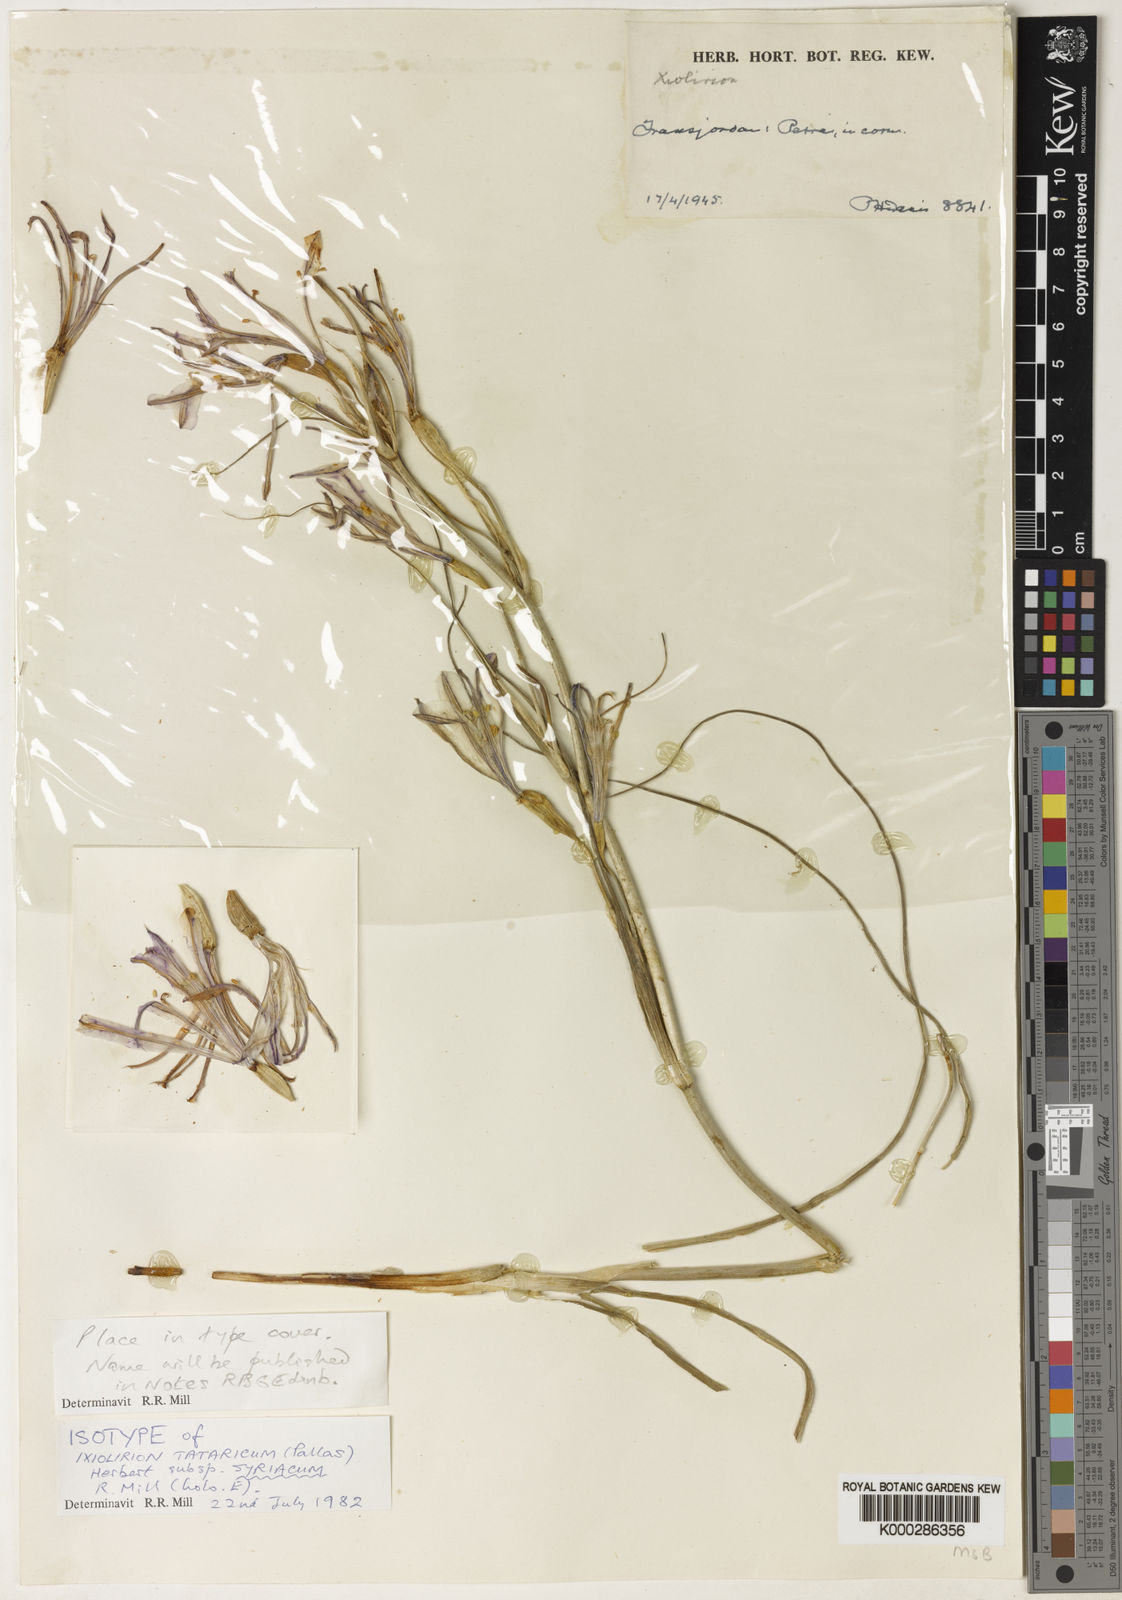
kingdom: Plantae
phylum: Tracheophyta
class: Liliopsida
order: Asparagales
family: Ixioliriaceae
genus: Ixiolirion
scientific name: Ixiolirion tataricum
